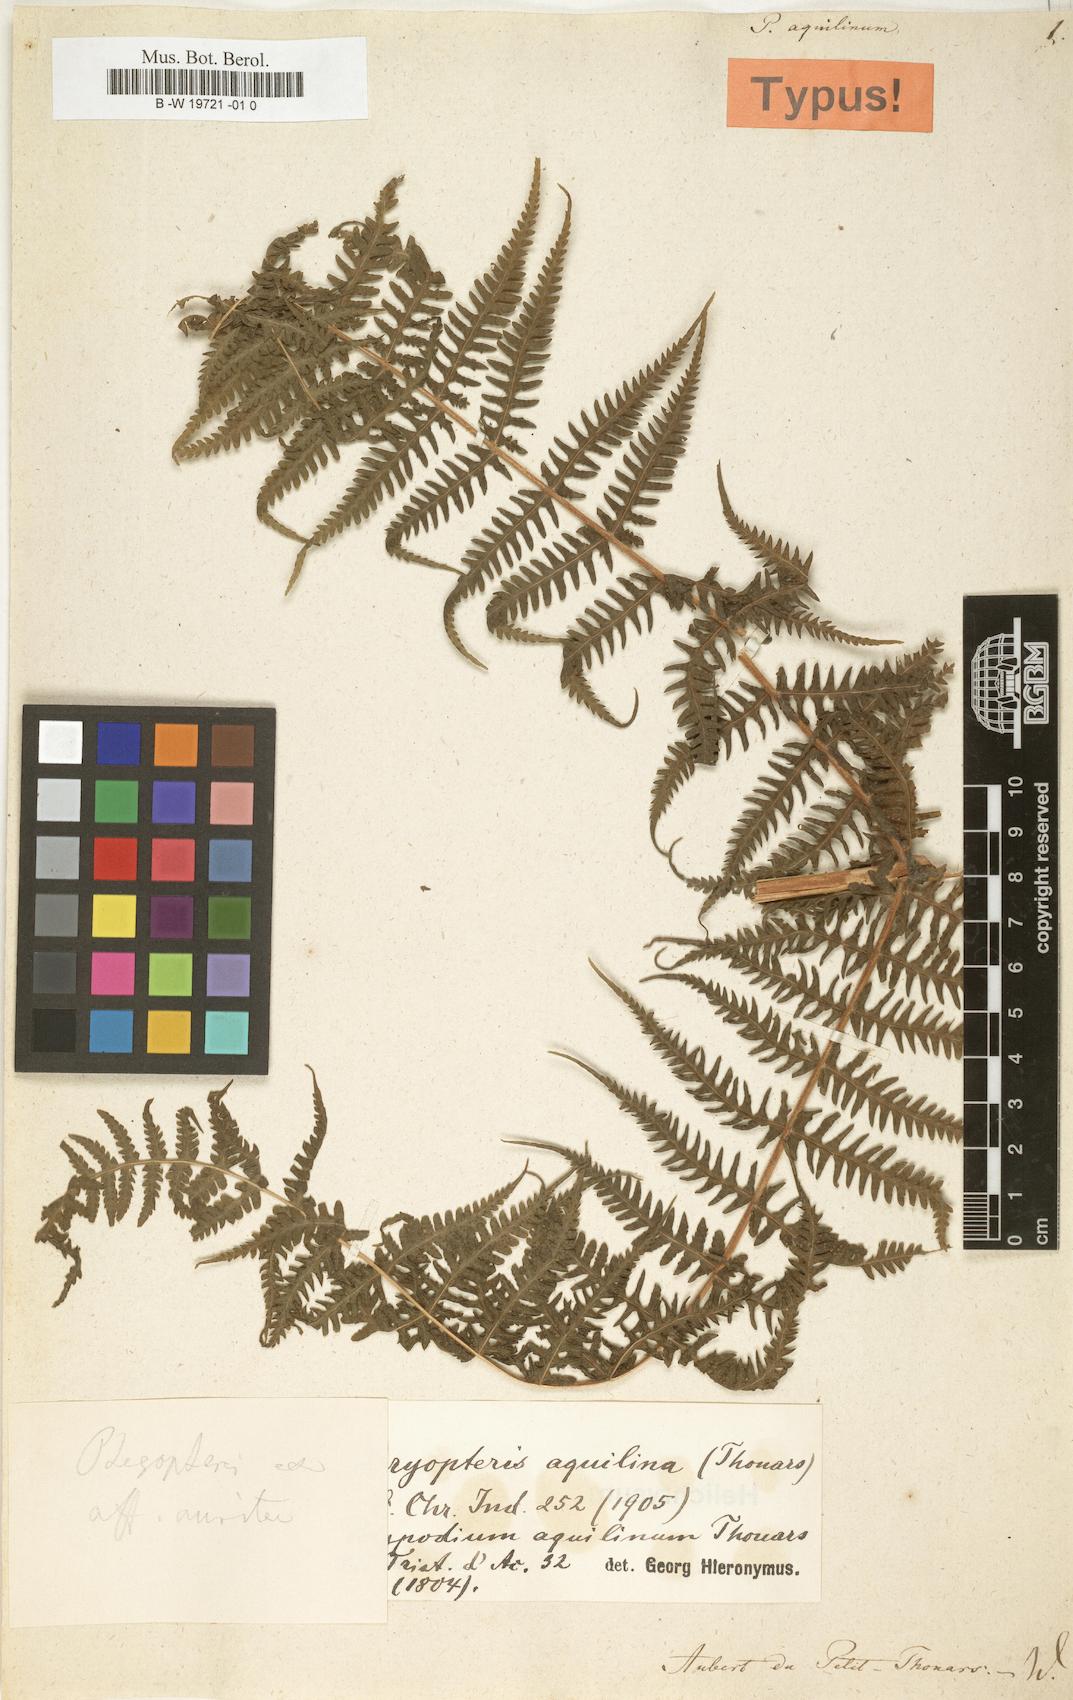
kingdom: Plantae
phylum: Tracheophyta
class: Polypodiopsida
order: Polypodiales
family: Dryopteridaceae
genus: Megalastrum
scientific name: Megalastrum aquilinum
